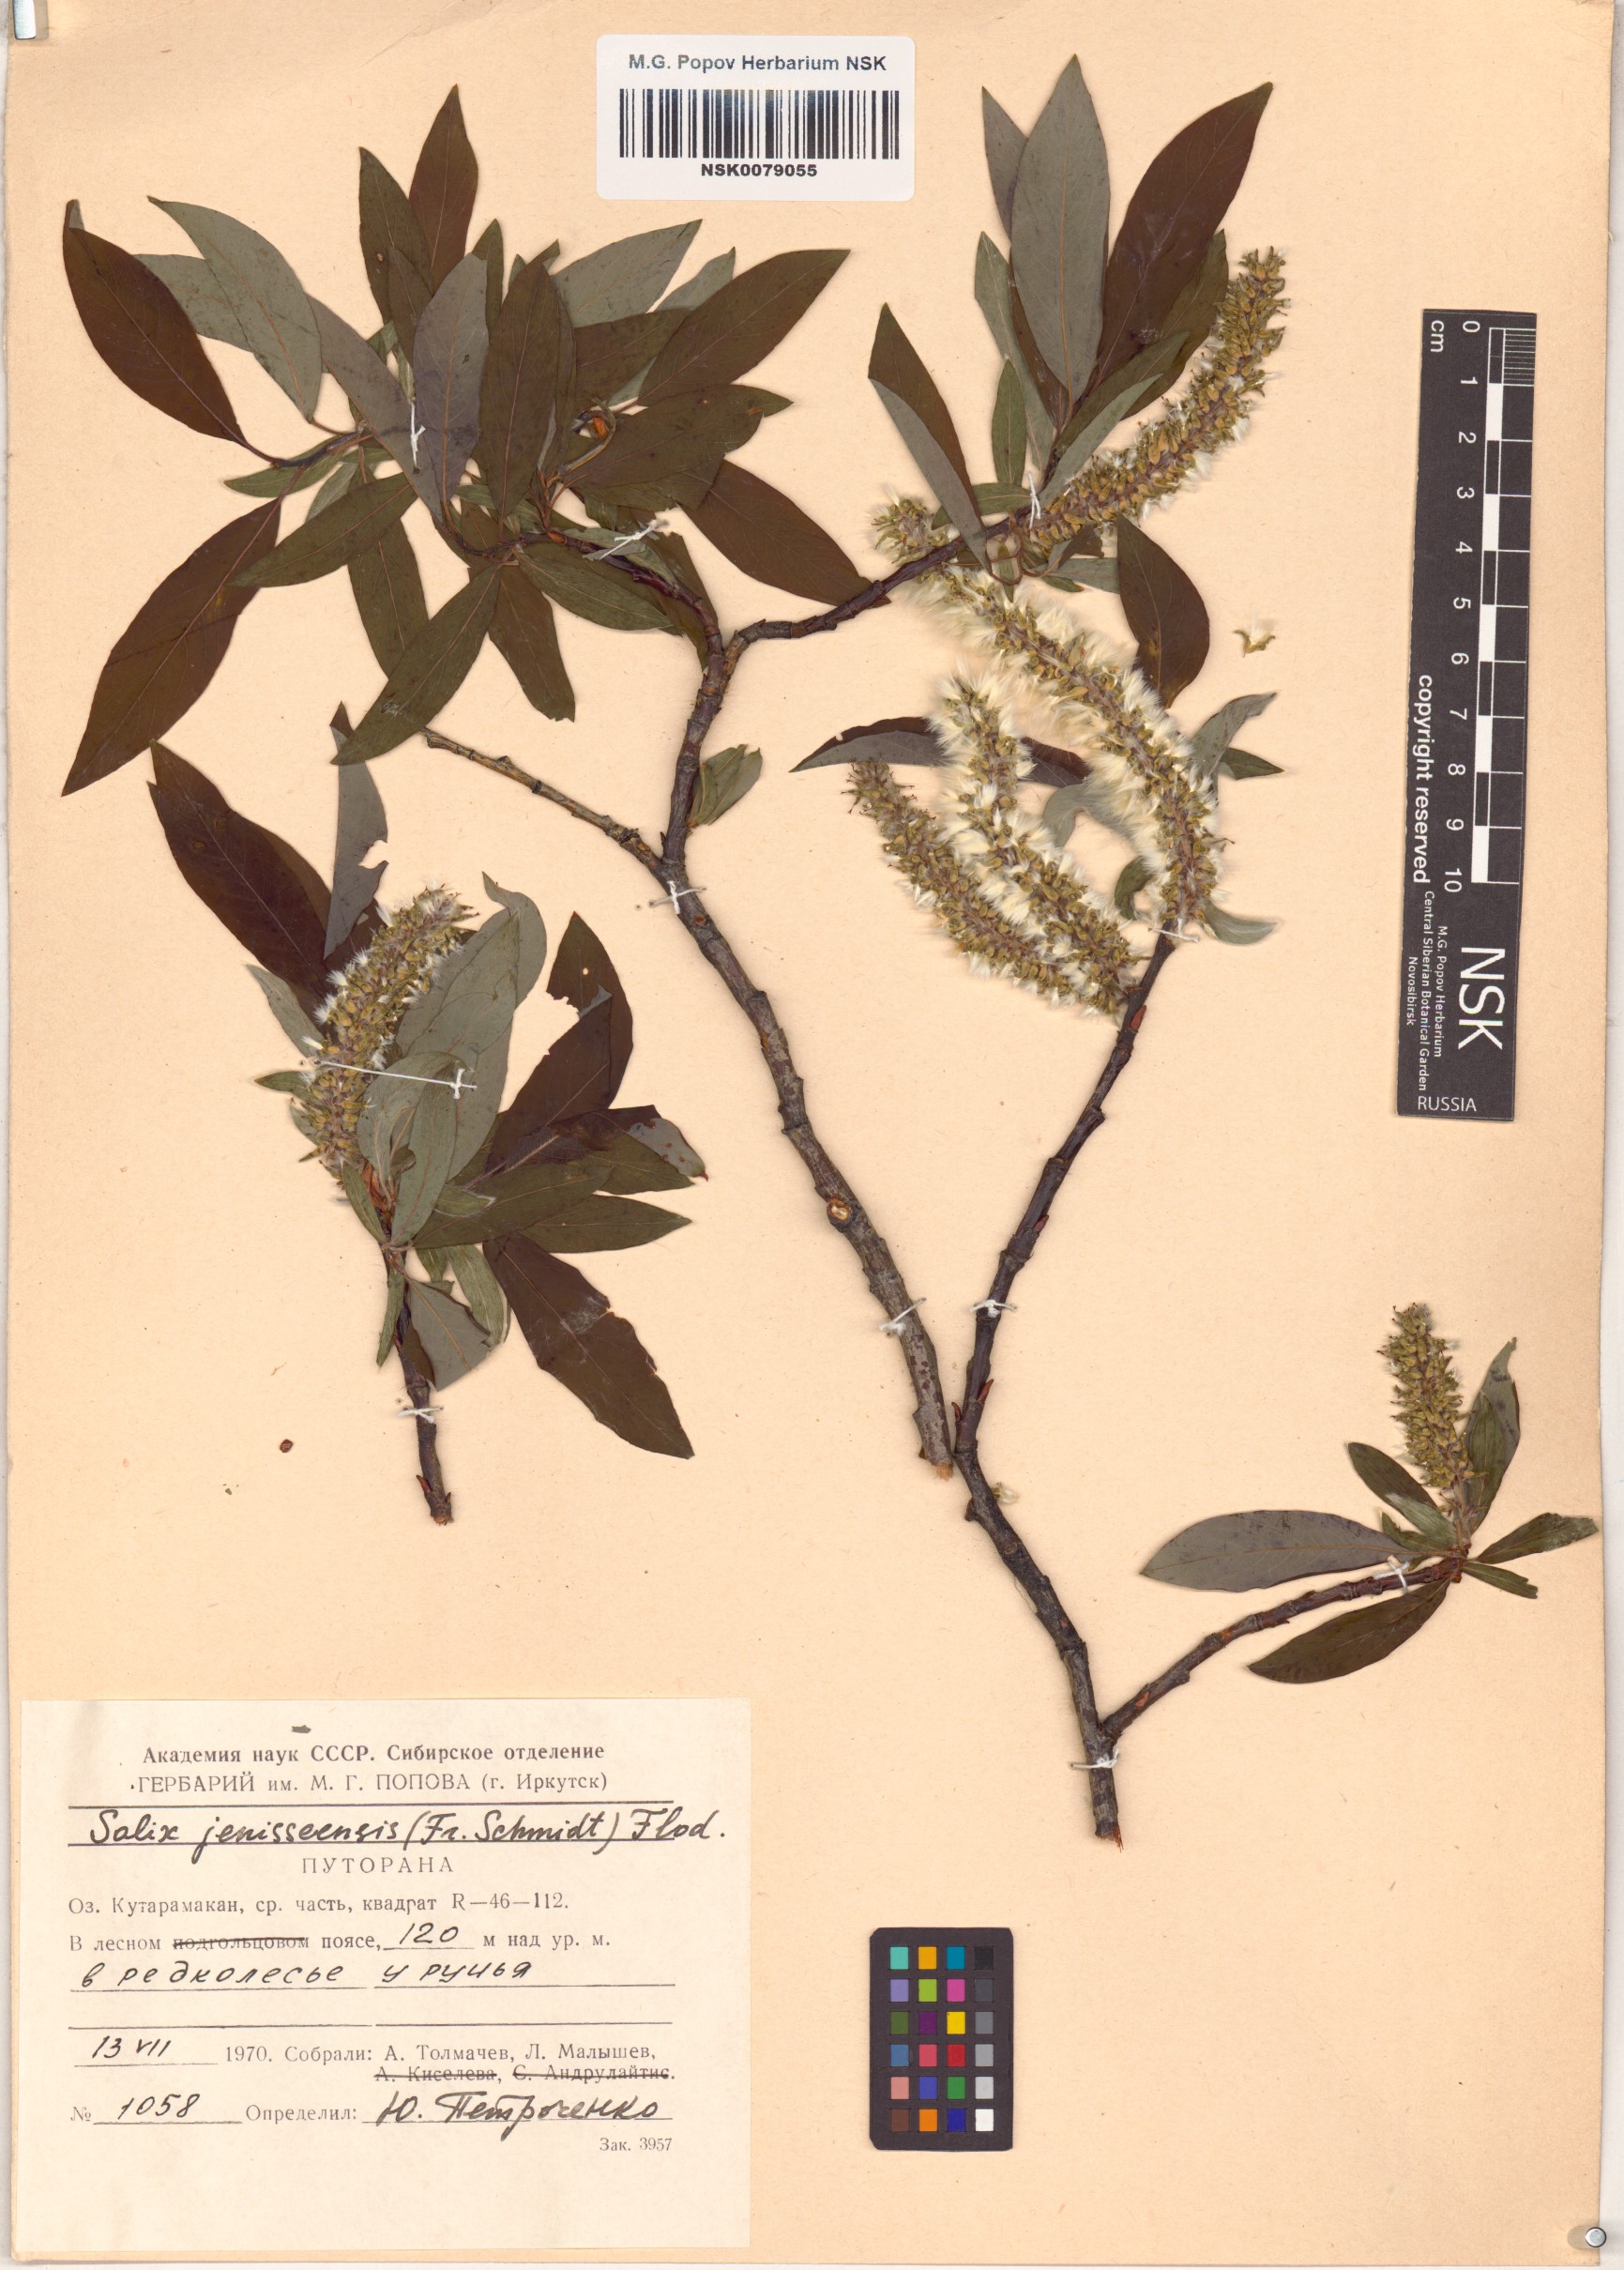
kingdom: Plantae
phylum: Tracheophyta
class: Magnoliopsida
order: Malpighiales
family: Salicaceae
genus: Salix
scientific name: Salix jenisseensis
